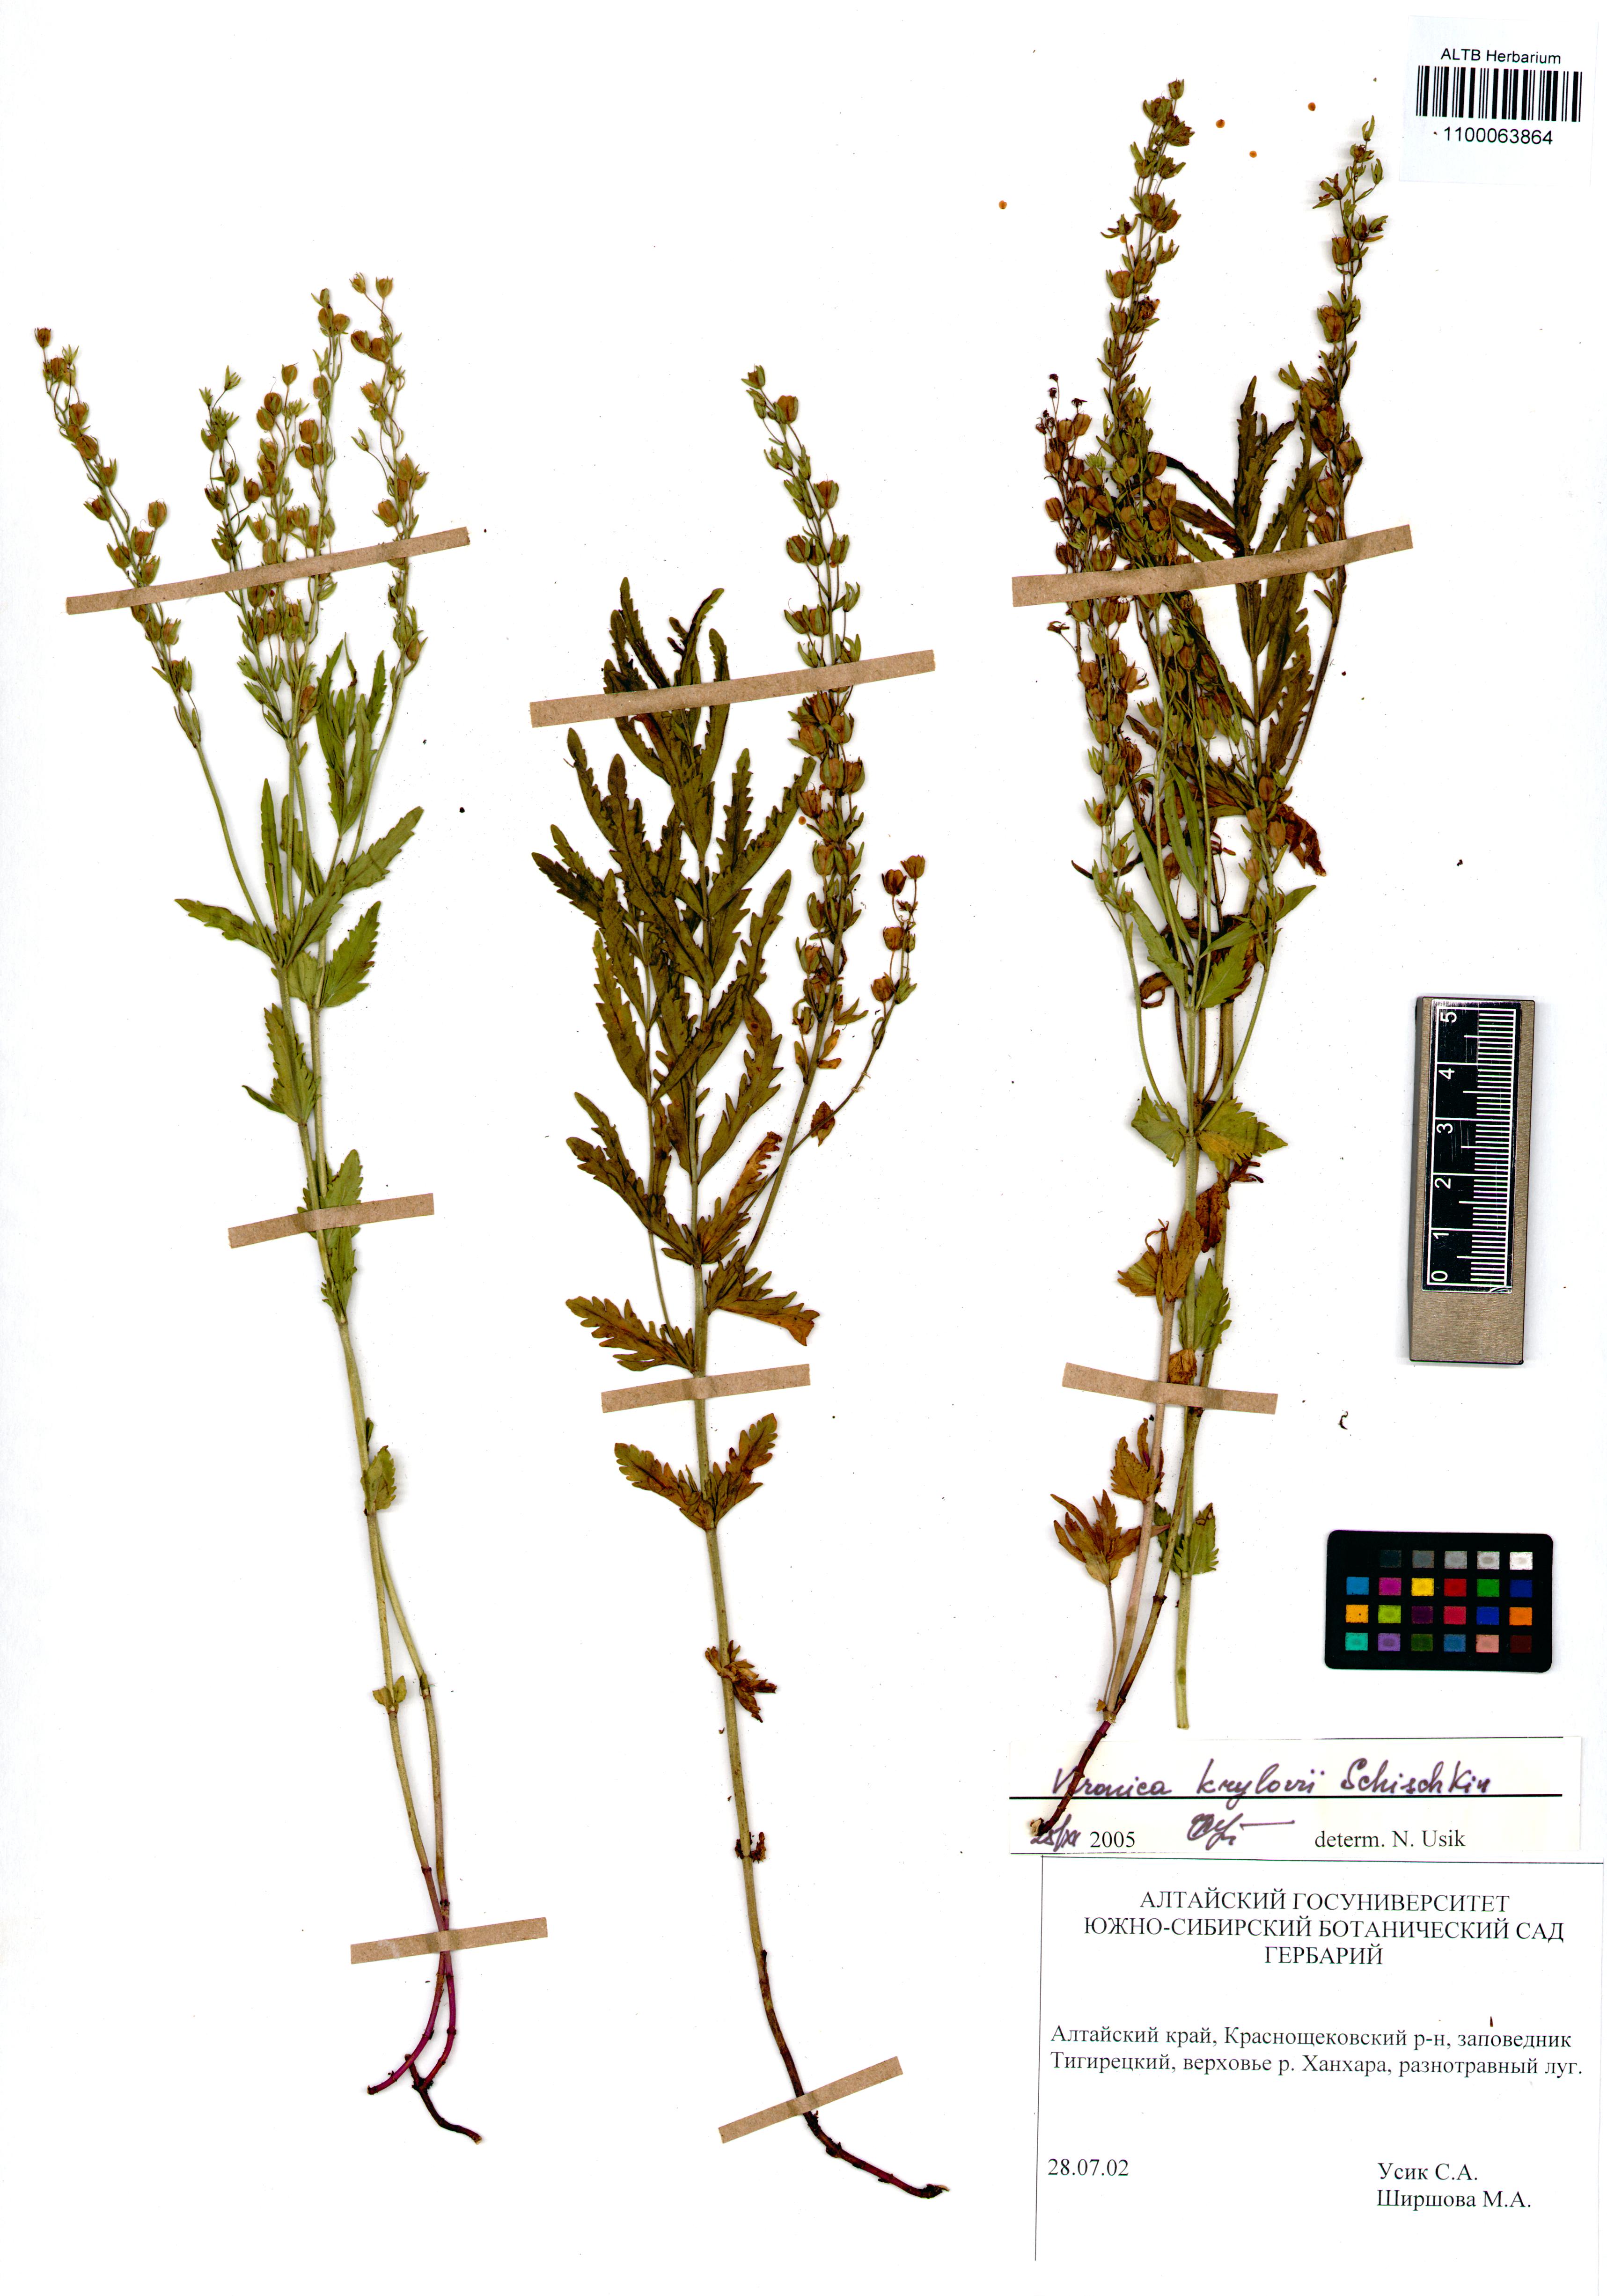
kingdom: Plantae
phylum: Tracheophyta
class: Magnoliopsida
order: Lamiales
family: Plantaginaceae
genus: Veronica
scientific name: Veronica krylovii
